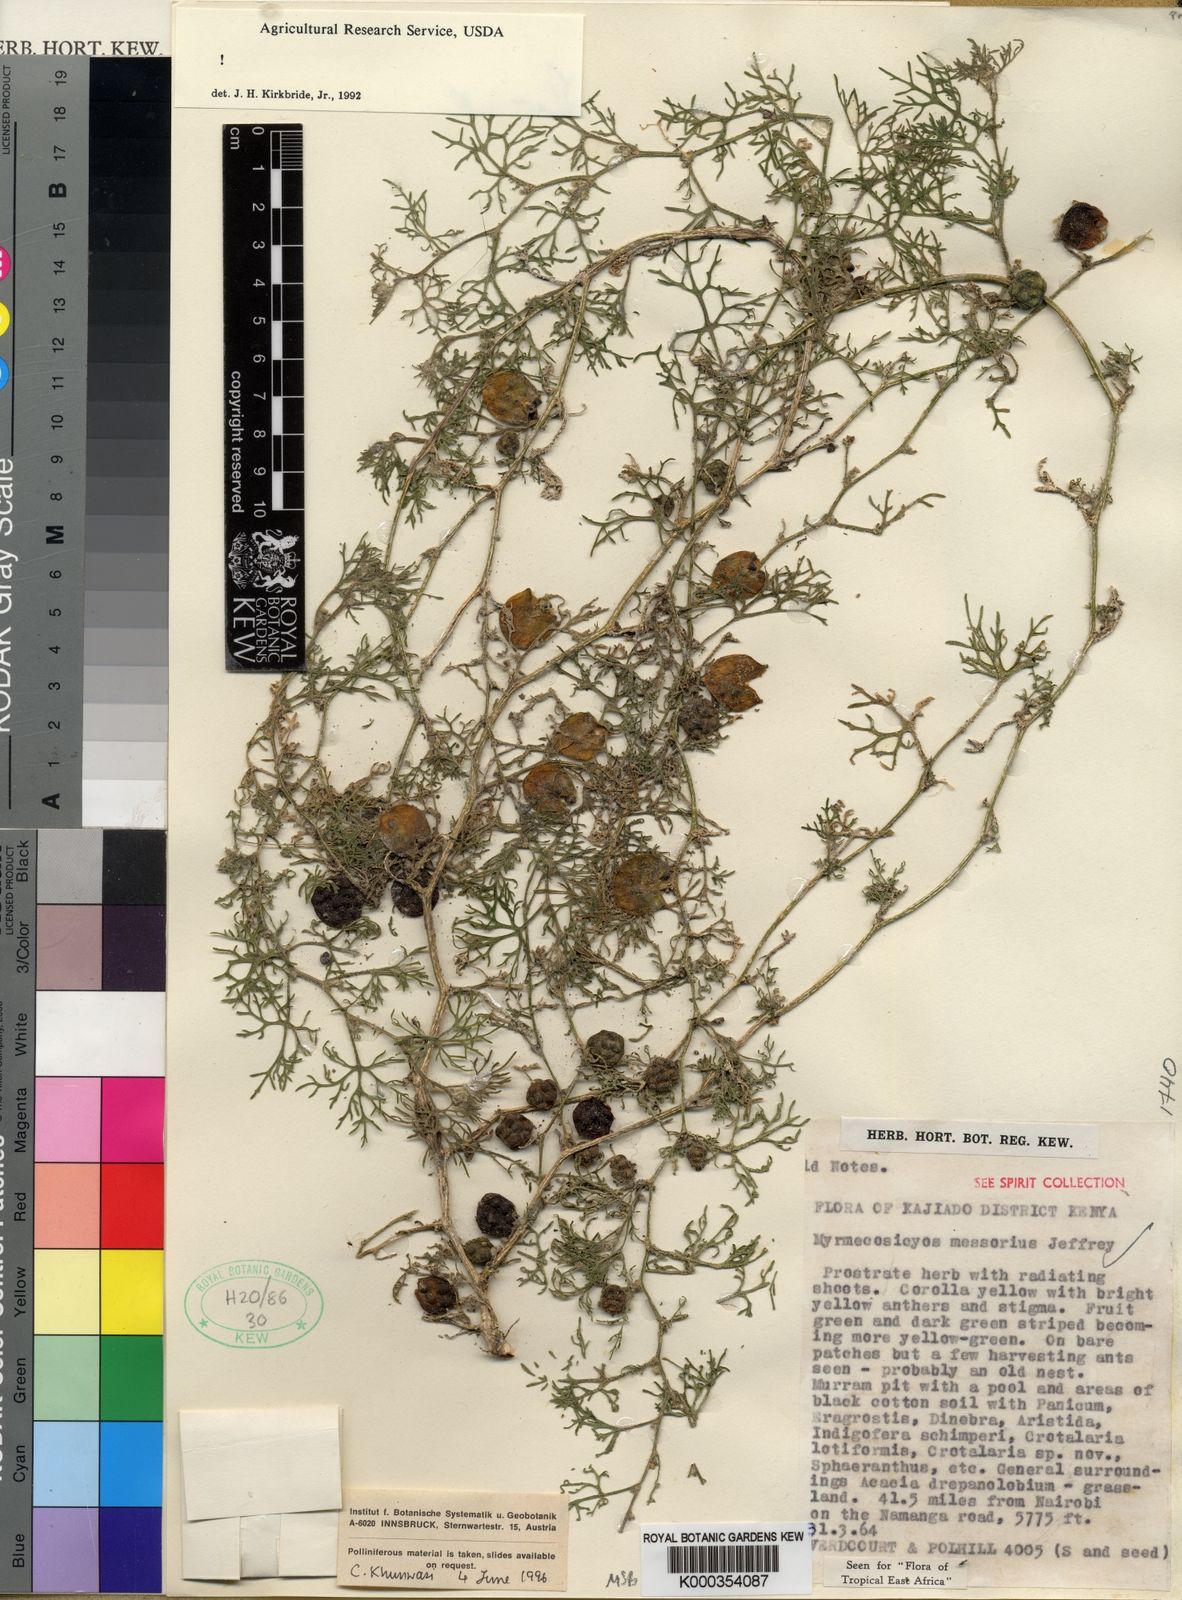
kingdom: Plantae
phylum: Tracheophyta
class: Magnoliopsida
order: Cucurbitales
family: Cucurbitaceae
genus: Cucumis
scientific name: Cucumis messorius
